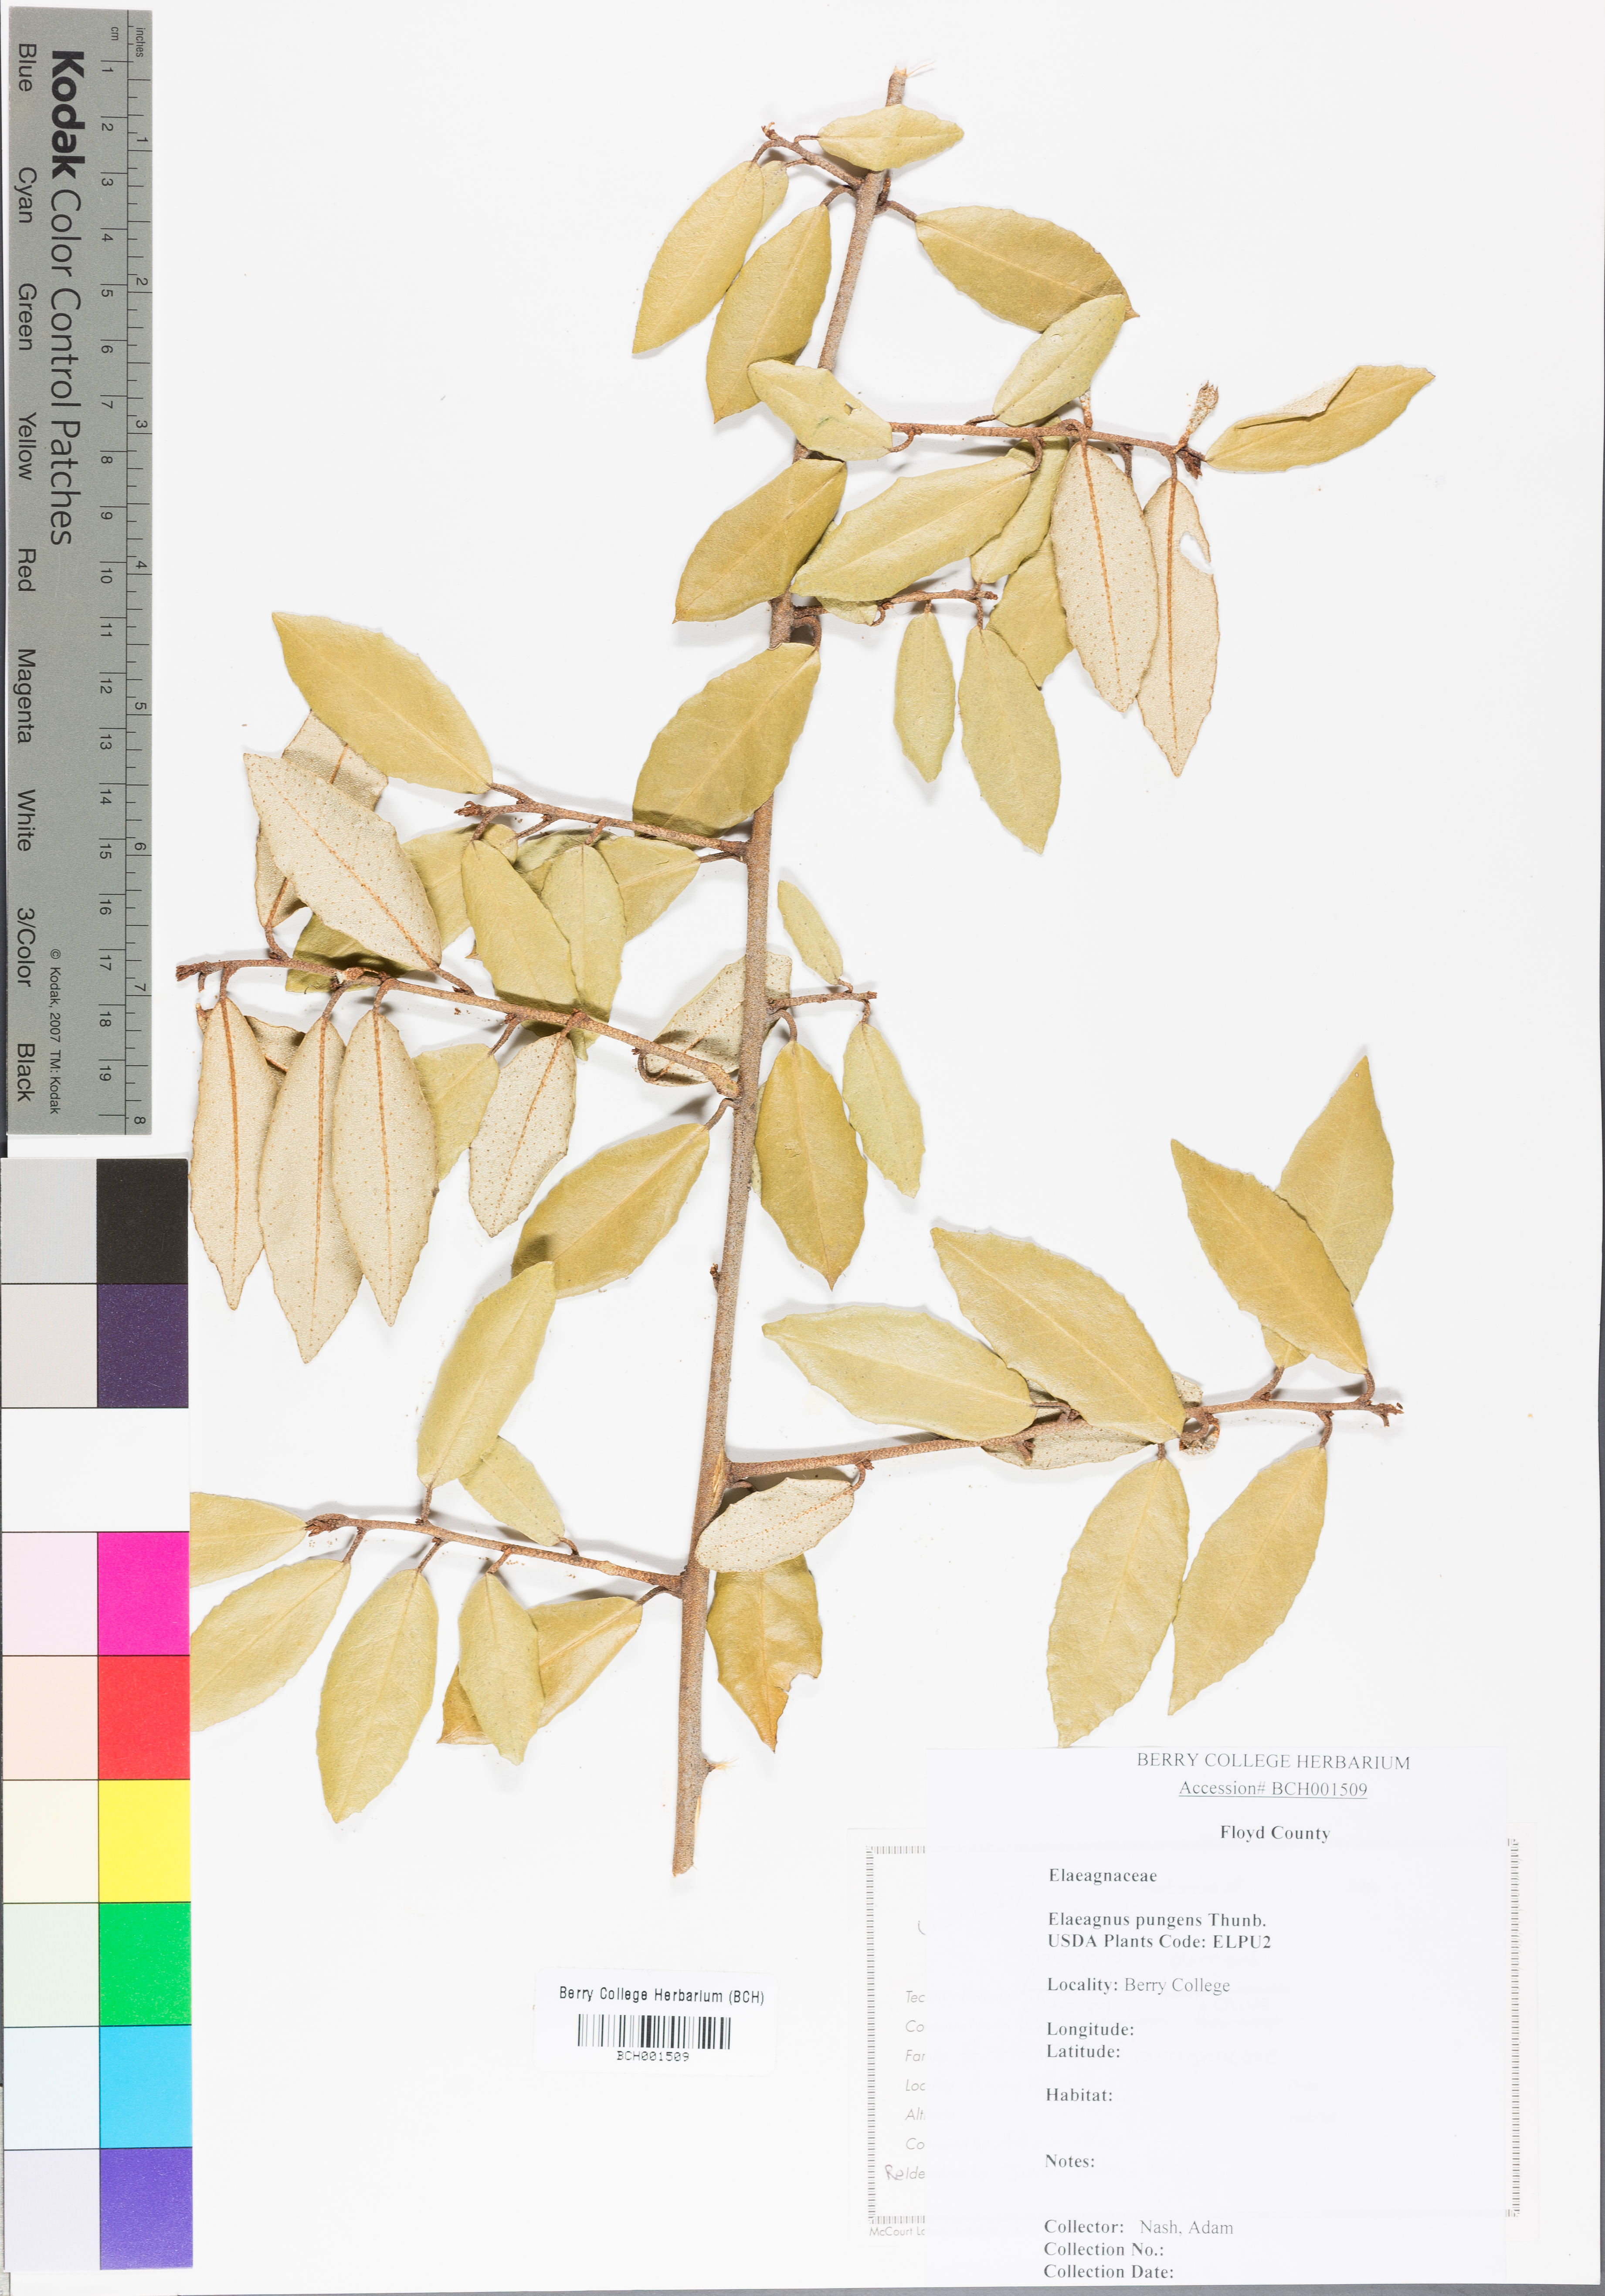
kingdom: Plantae
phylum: Tracheophyta
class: Magnoliopsida
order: Rosales
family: Elaeagnaceae
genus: Elaeagnus
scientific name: Elaeagnus pungens
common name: Spiny oleaster
